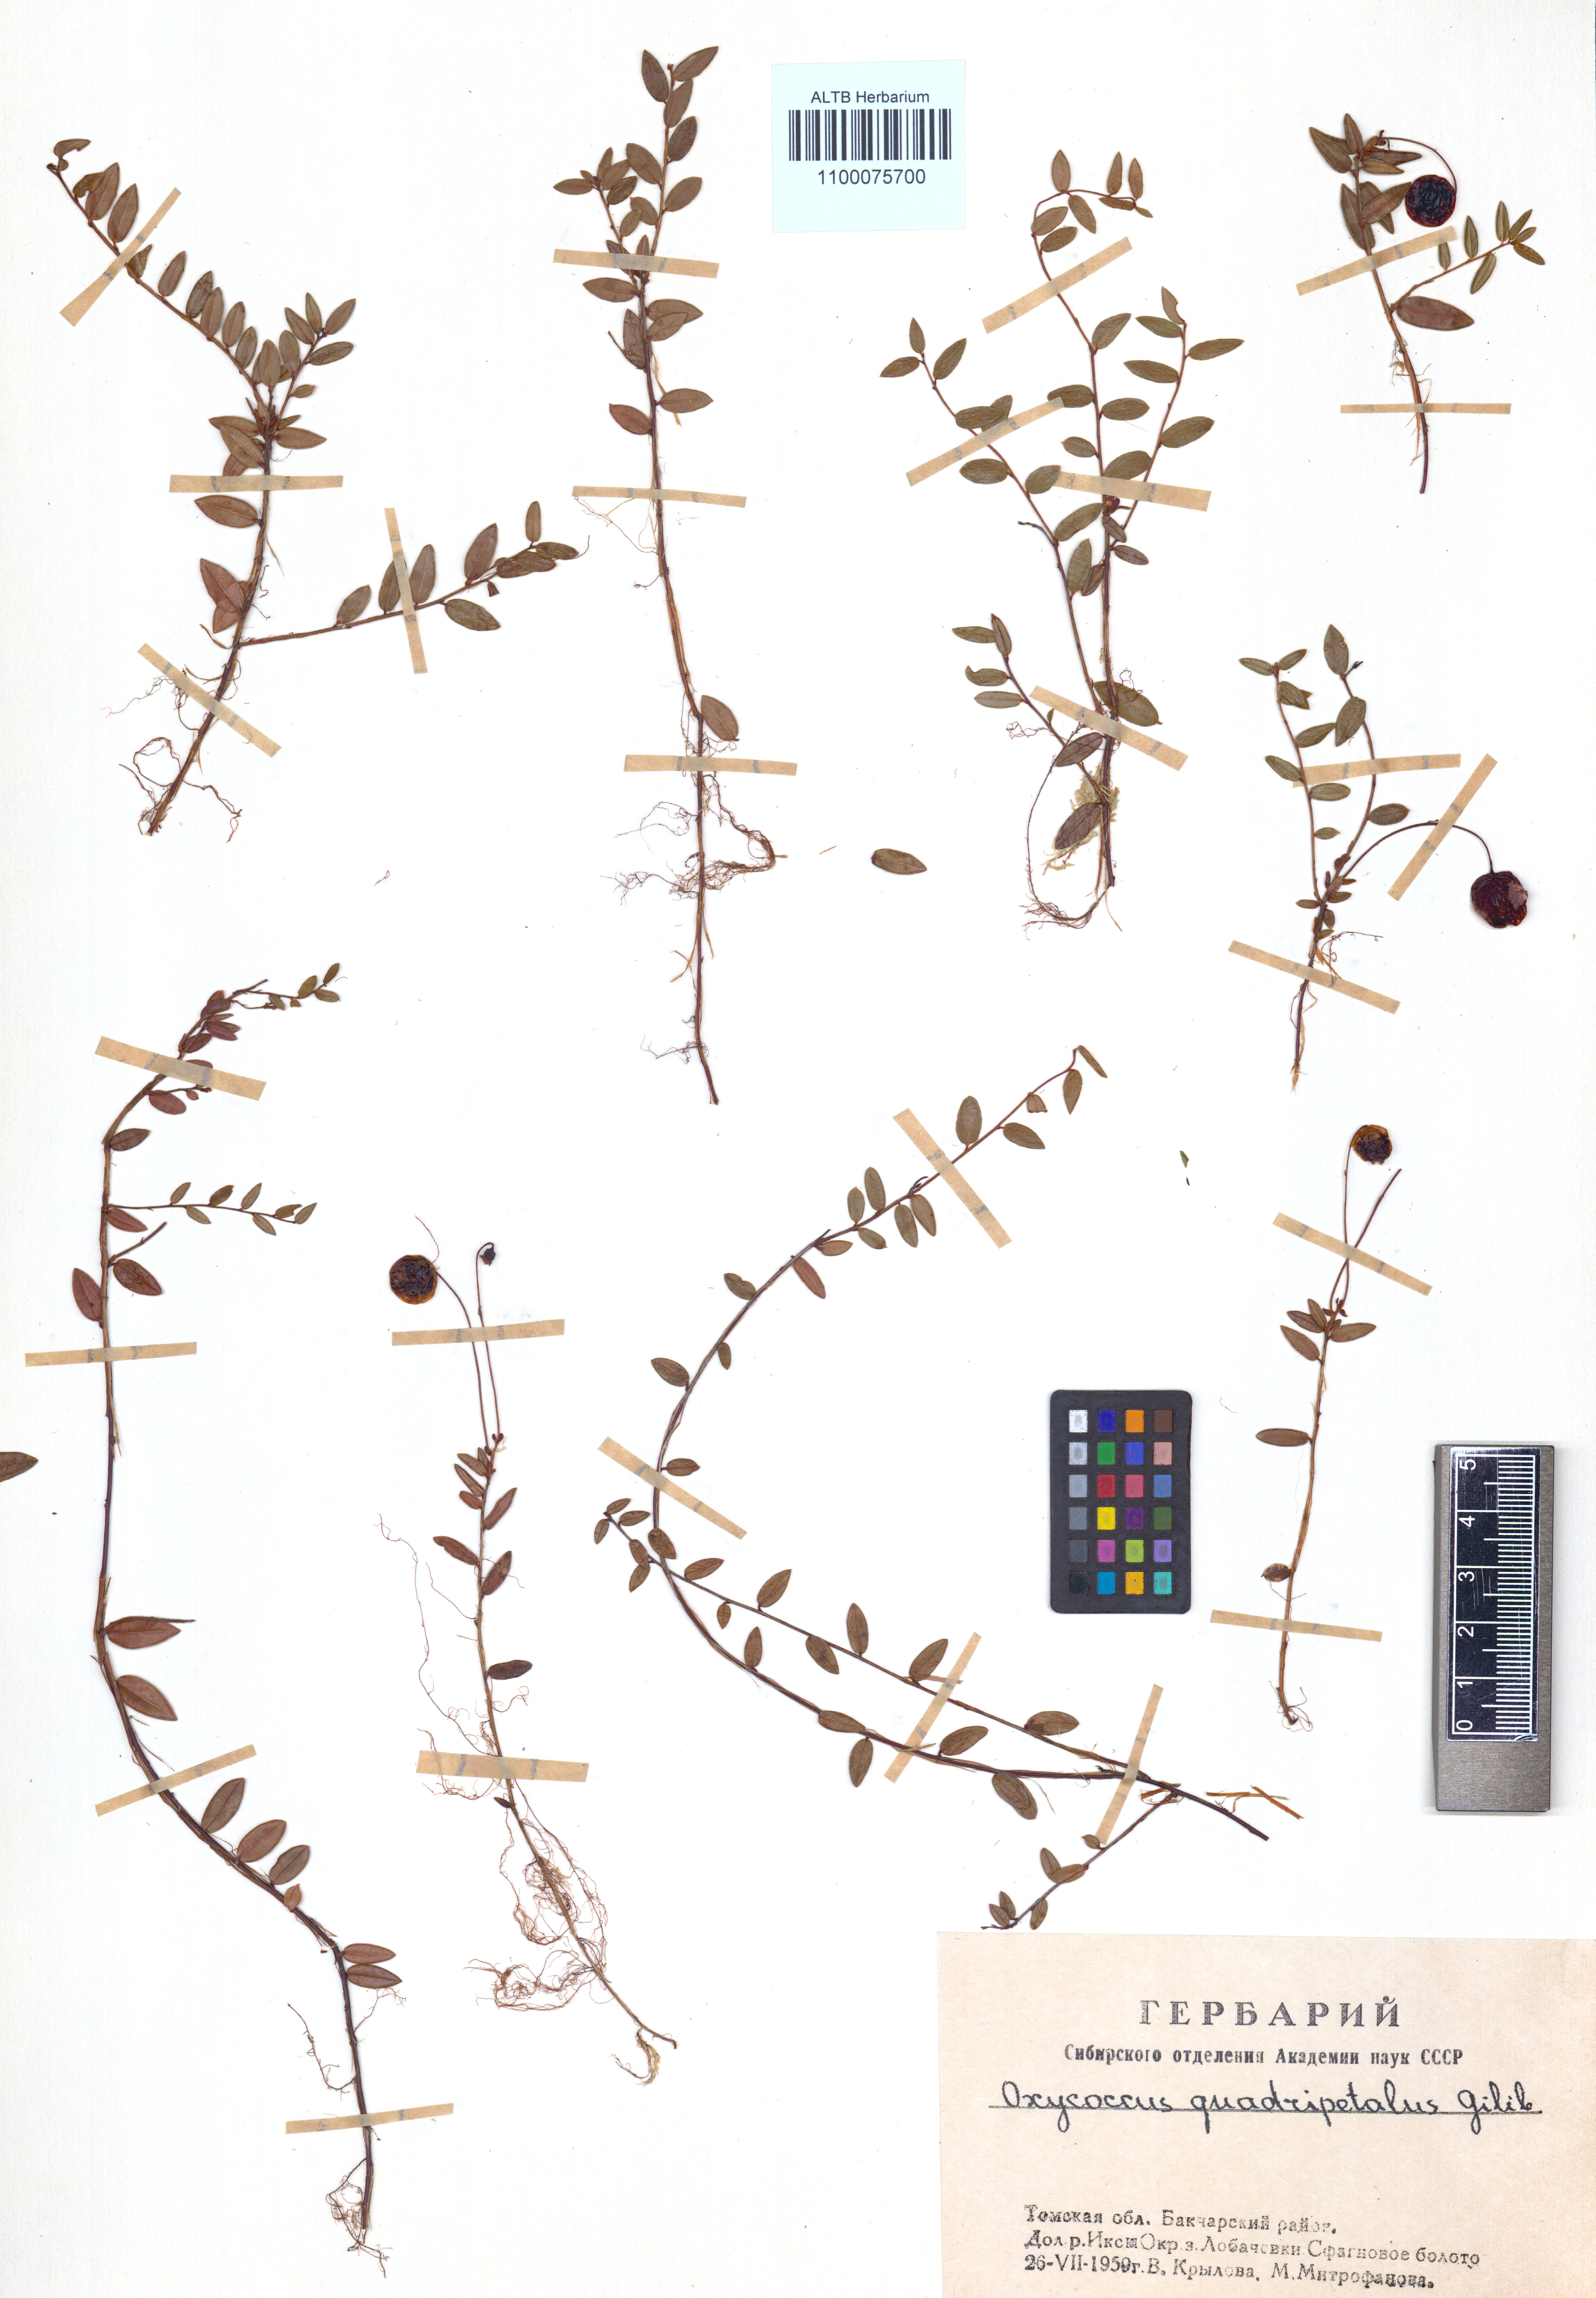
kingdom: Plantae
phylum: Tracheophyta
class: Magnoliopsida
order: Ericales
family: Ericaceae
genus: Vaccinium
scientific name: Vaccinium oxycoccos
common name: Cranberry
